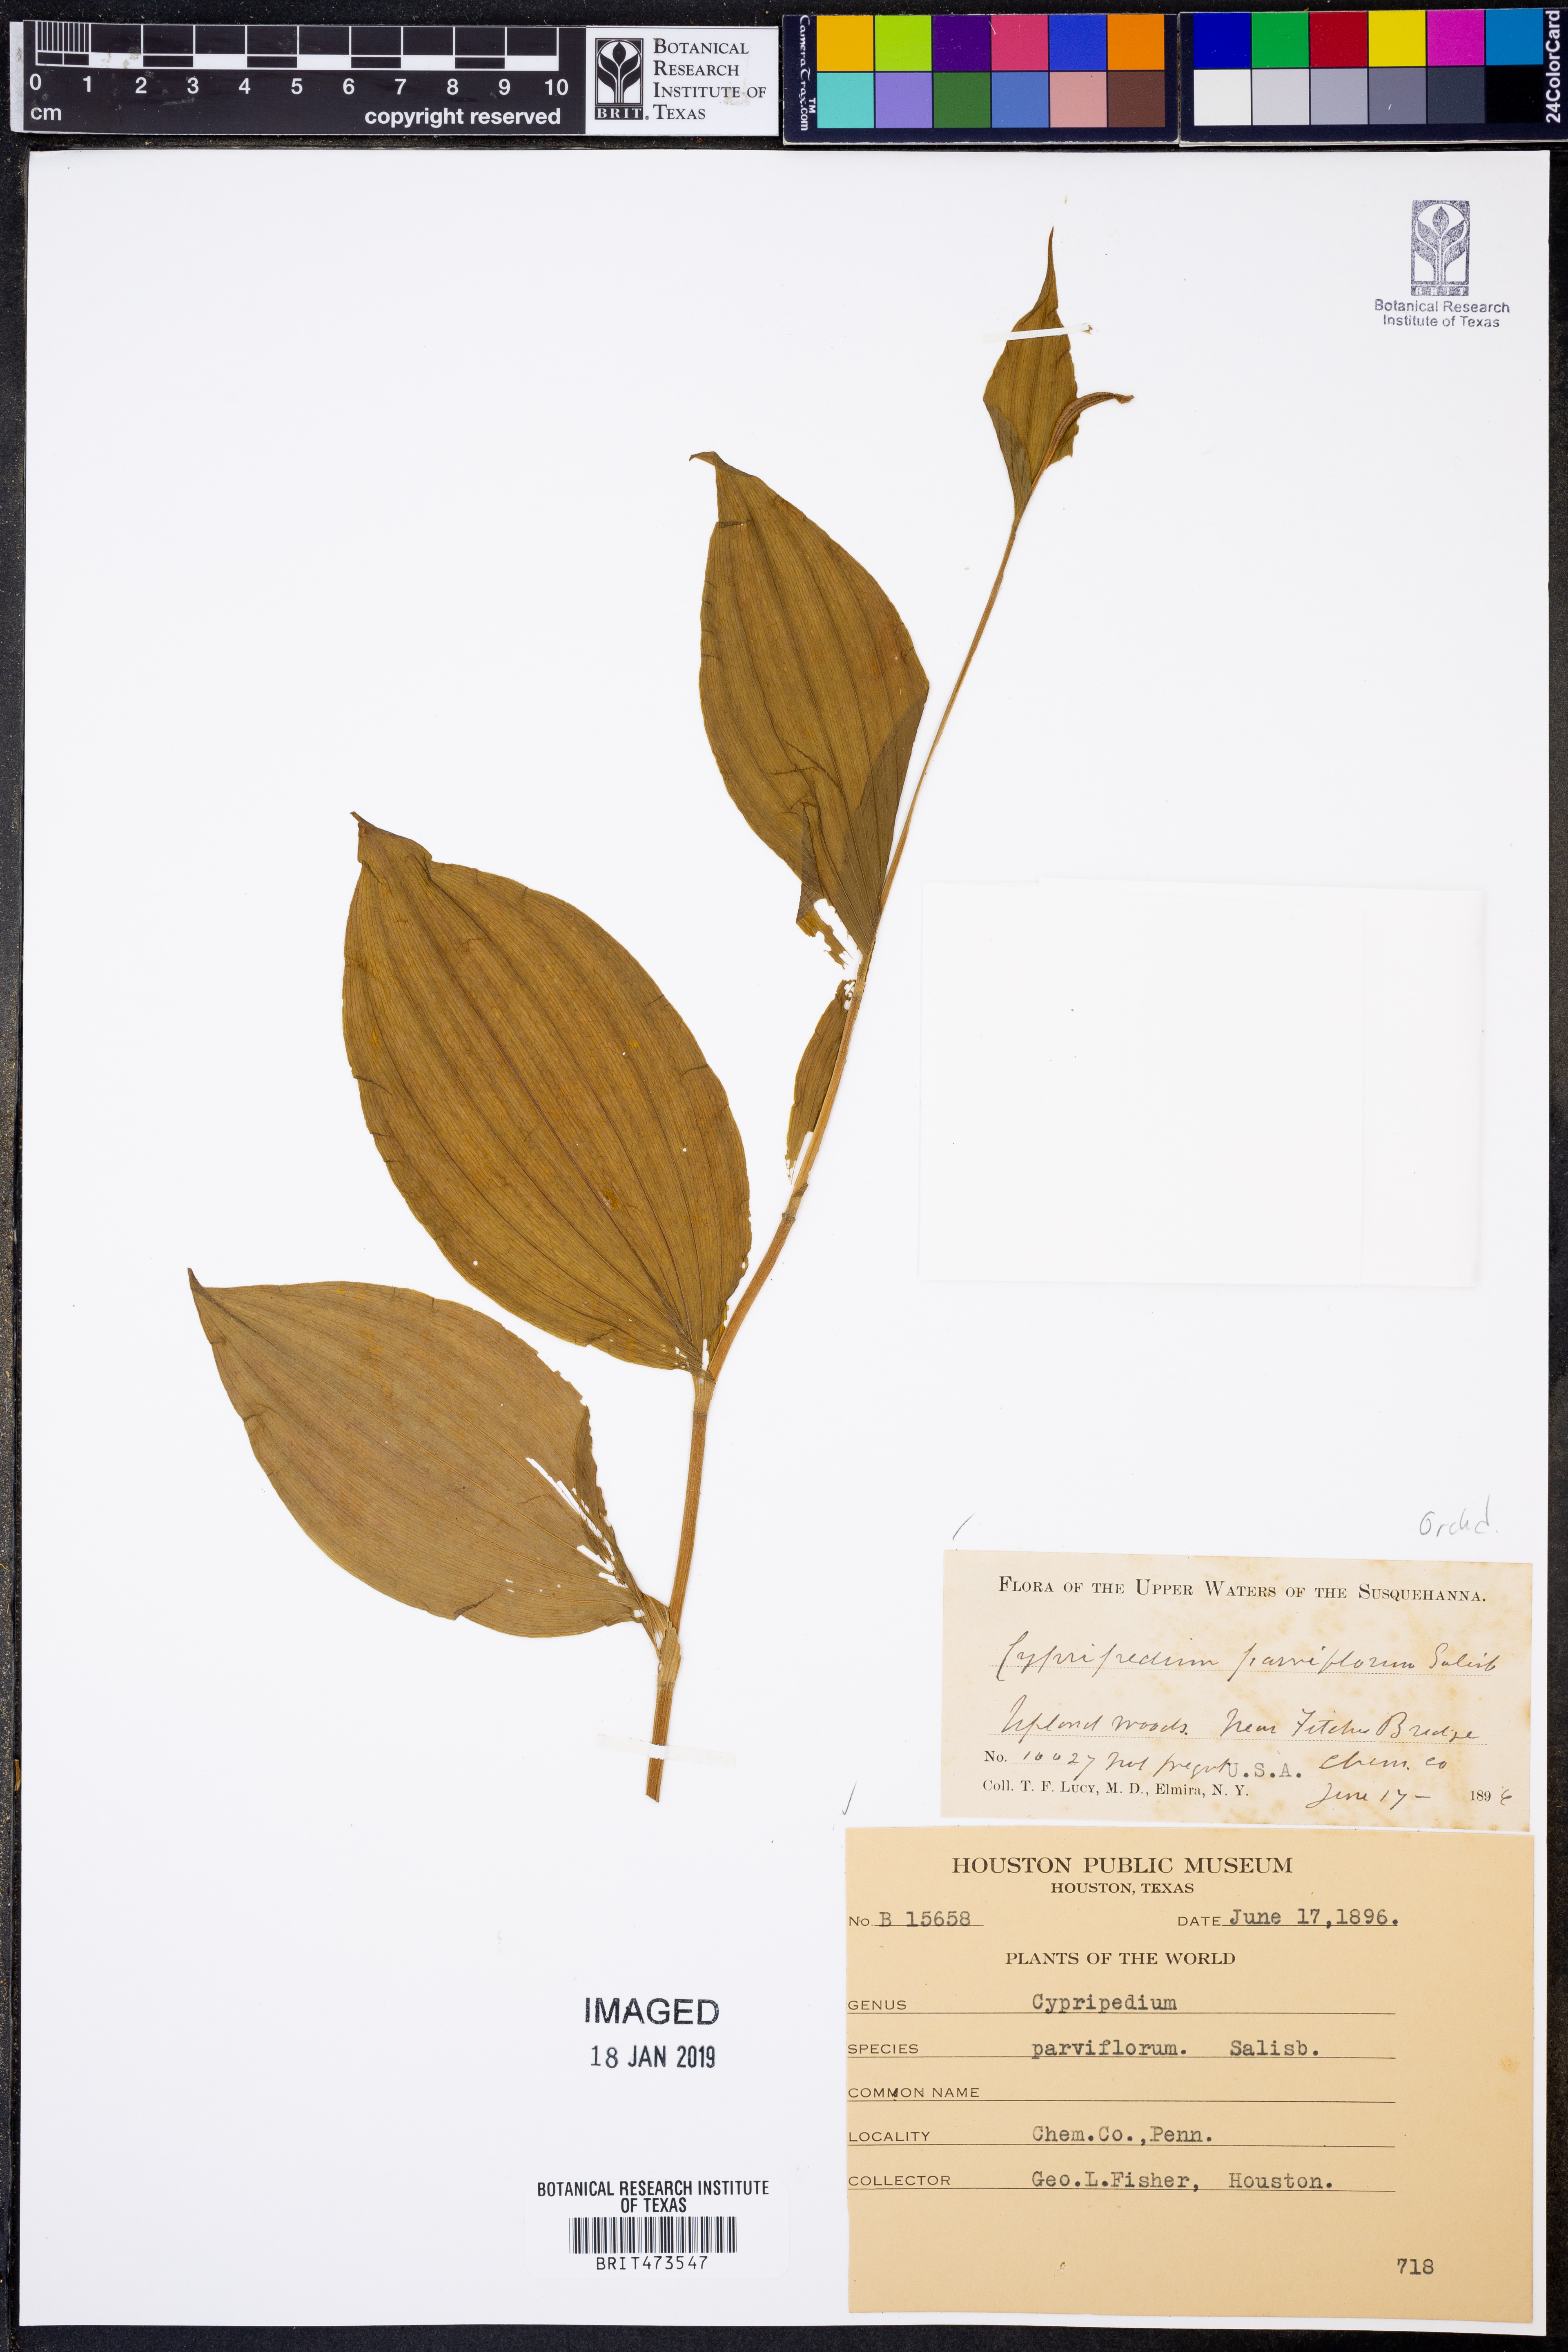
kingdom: Plantae
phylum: Tracheophyta
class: Liliopsida
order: Asparagales
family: Orchidaceae
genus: Cypripedium
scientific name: Cypripedium parviflorum
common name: American yellow lady's-slipper
